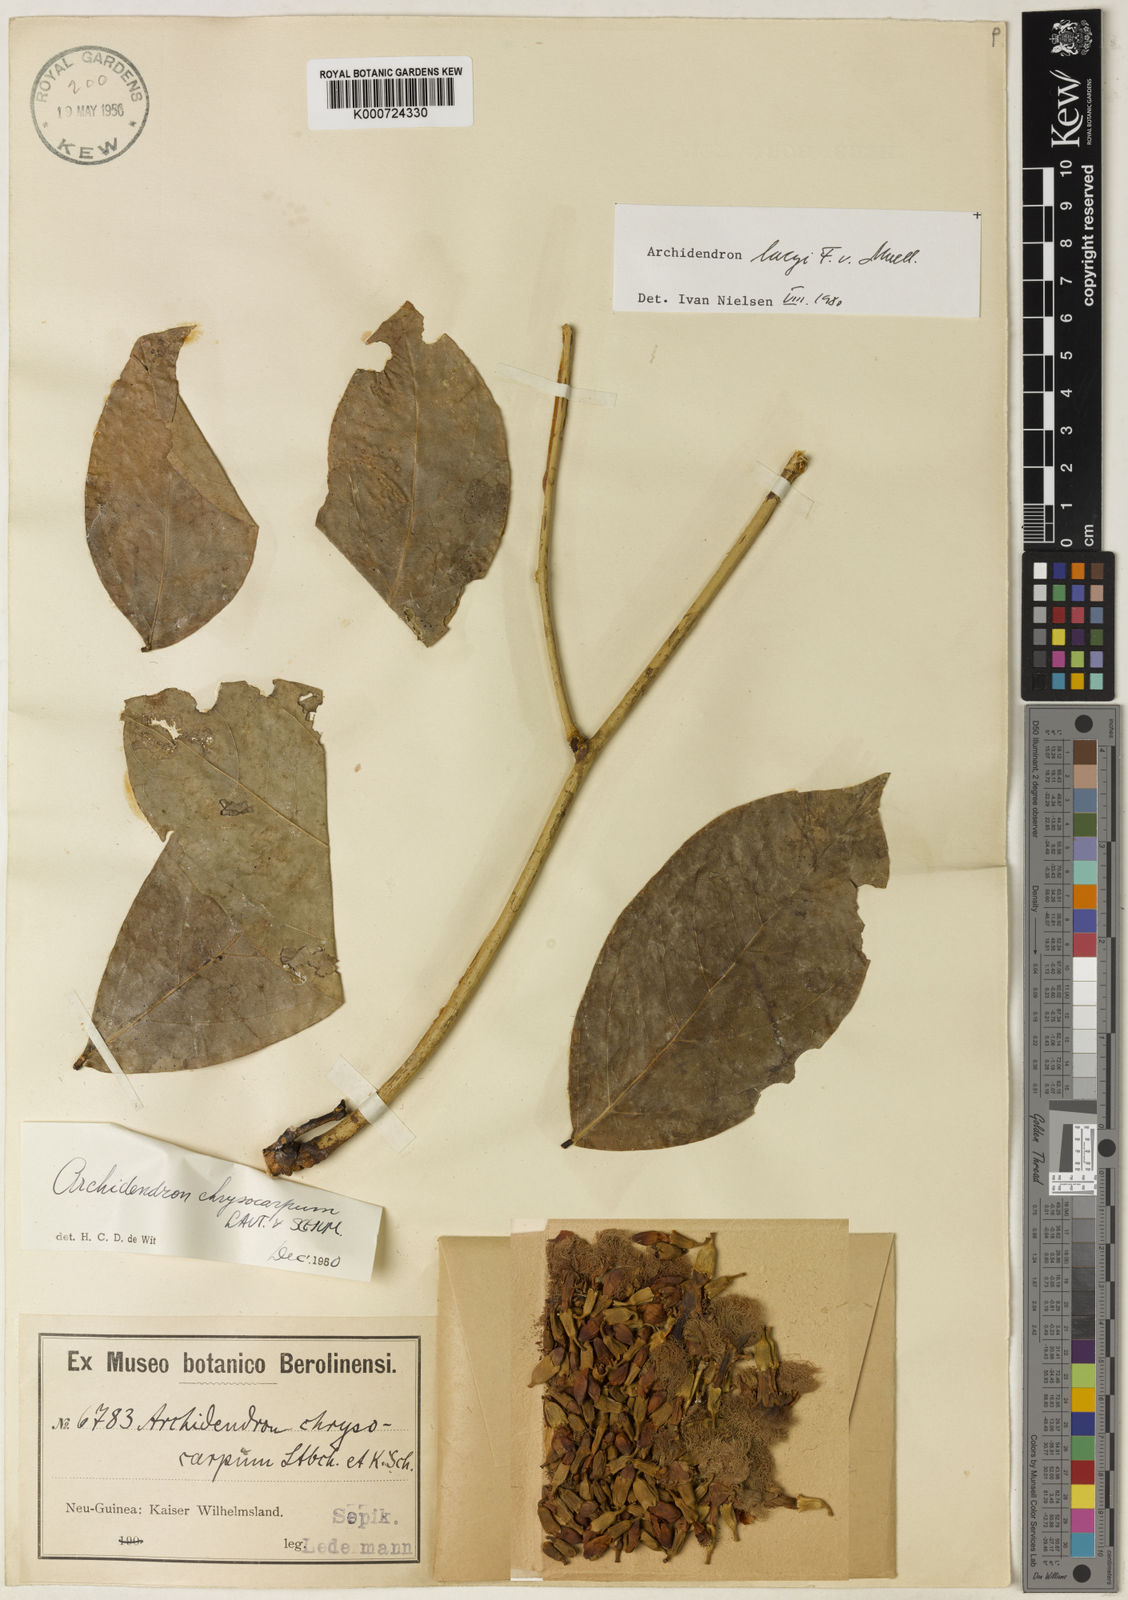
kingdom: Plantae
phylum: Tracheophyta
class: Magnoliopsida
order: Fabales
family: Fabaceae
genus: Archidendron
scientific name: Archidendron lucyi
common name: Scarlet bean
